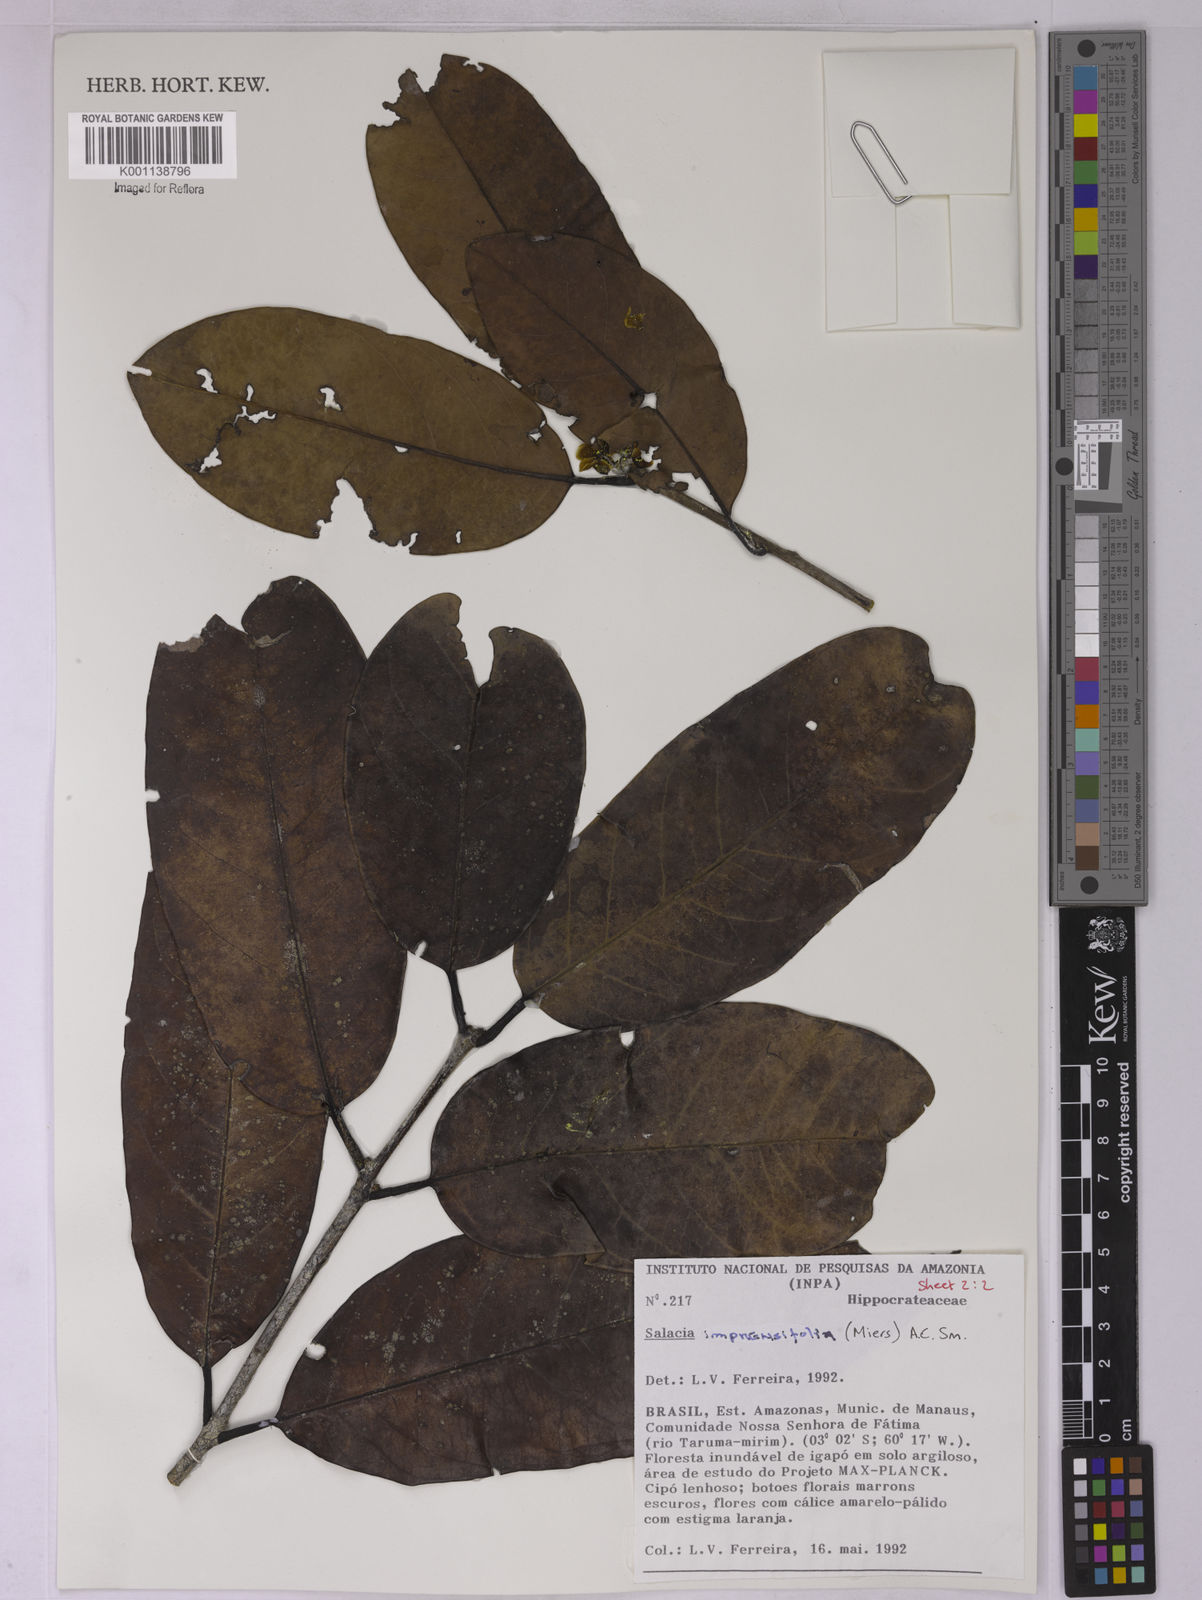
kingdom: Plantae
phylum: Tracheophyta
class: Magnoliopsida
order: Celastrales
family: Celastraceae
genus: Salacia
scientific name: Salacia impressifolia
